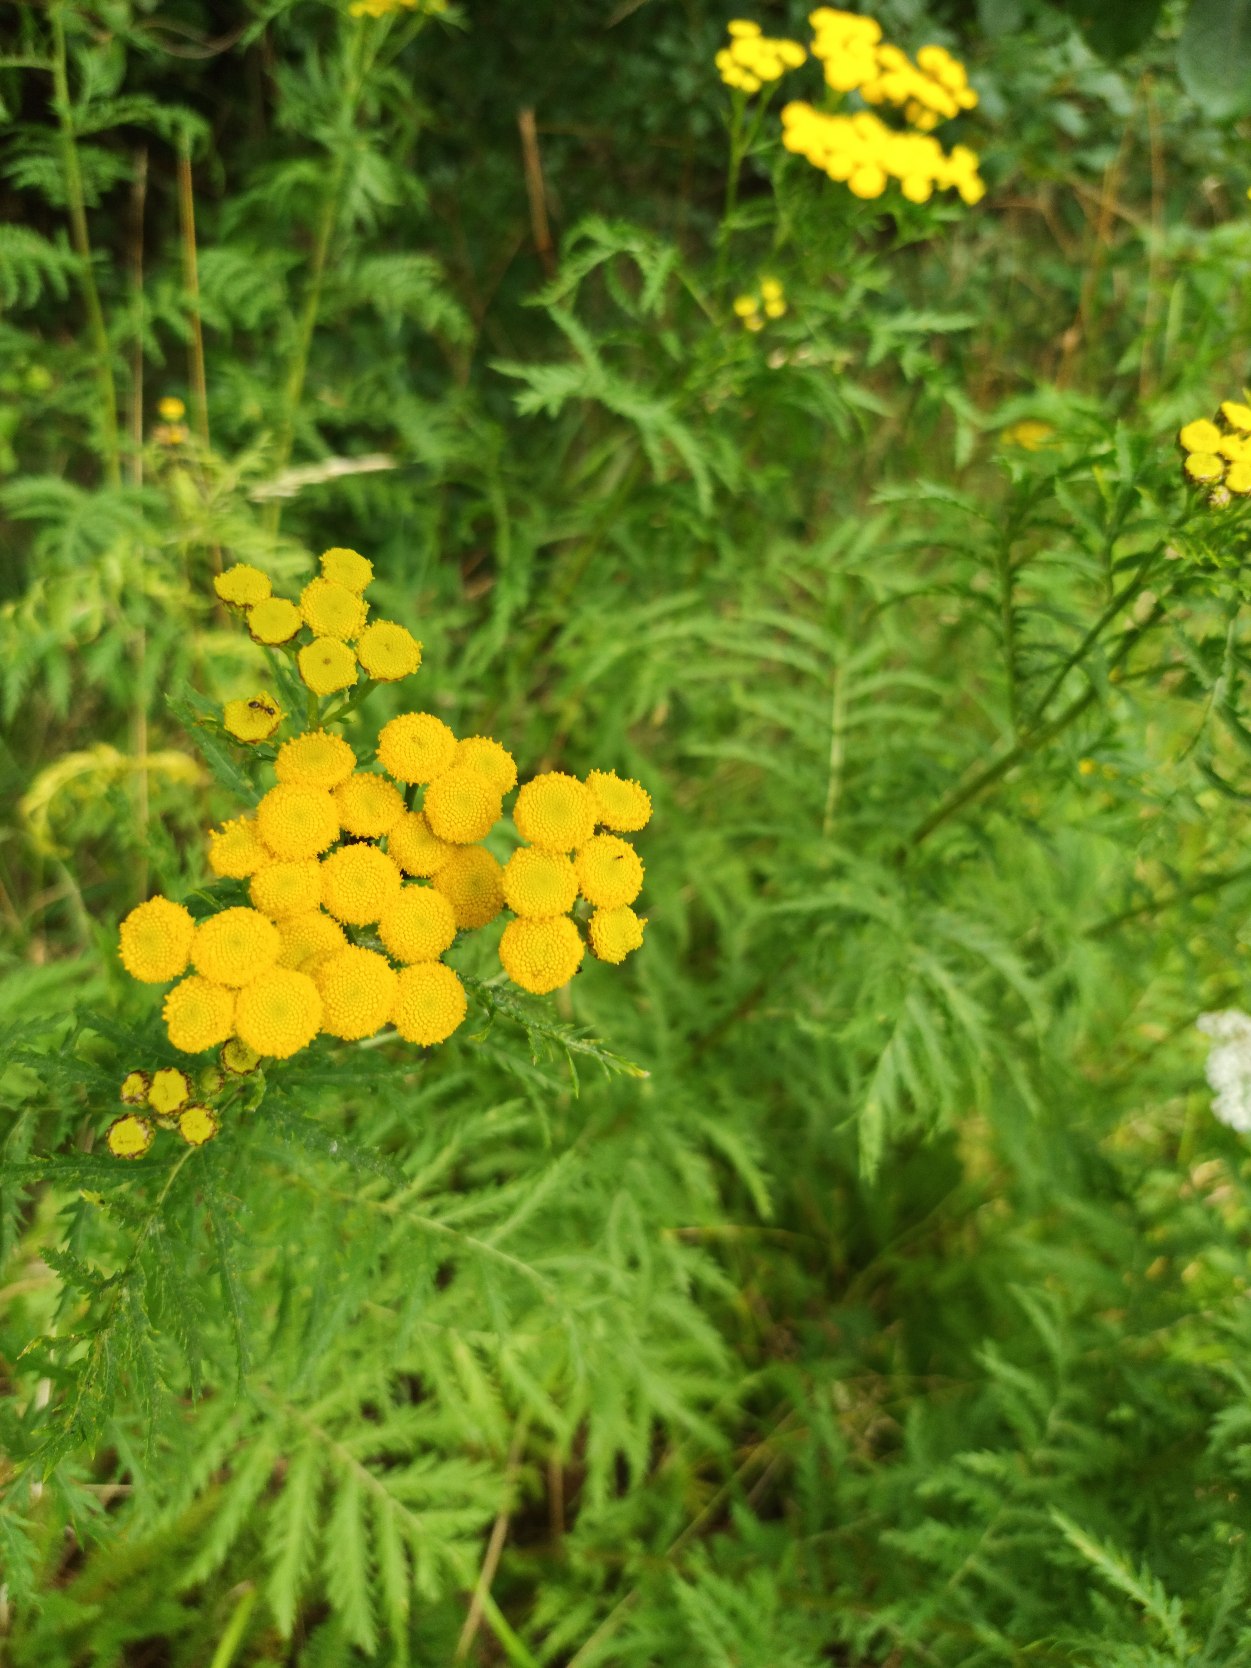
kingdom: Plantae
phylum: Tracheophyta
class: Magnoliopsida
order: Asterales
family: Asteraceae
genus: Tanacetum
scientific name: Tanacetum vulgare
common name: Rejnfan
